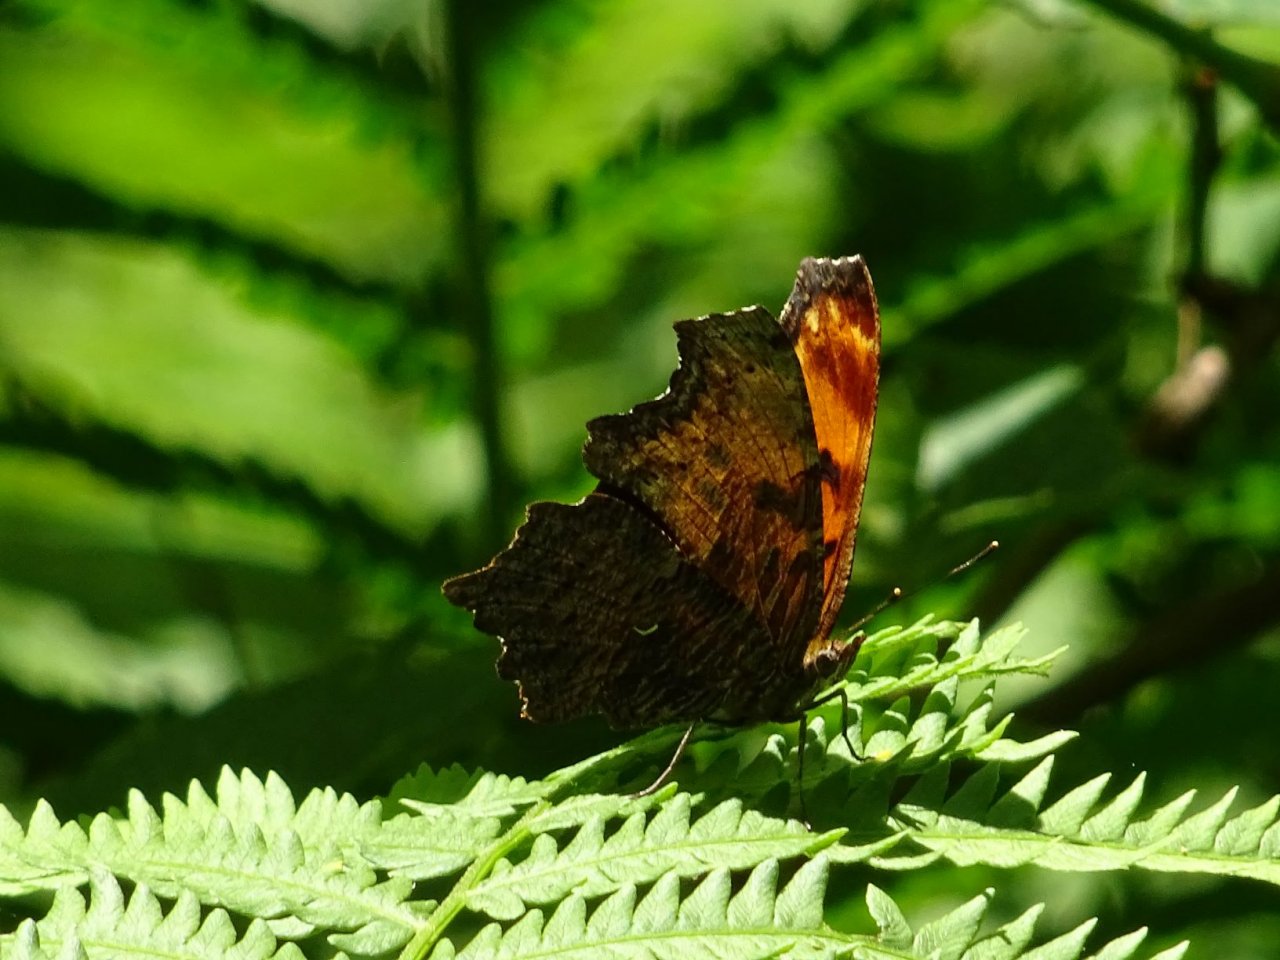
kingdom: Animalia
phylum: Arthropoda
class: Insecta
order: Lepidoptera
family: Nymphalidae
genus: Polygonia
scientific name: Polygonia progne
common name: Gray Comma
